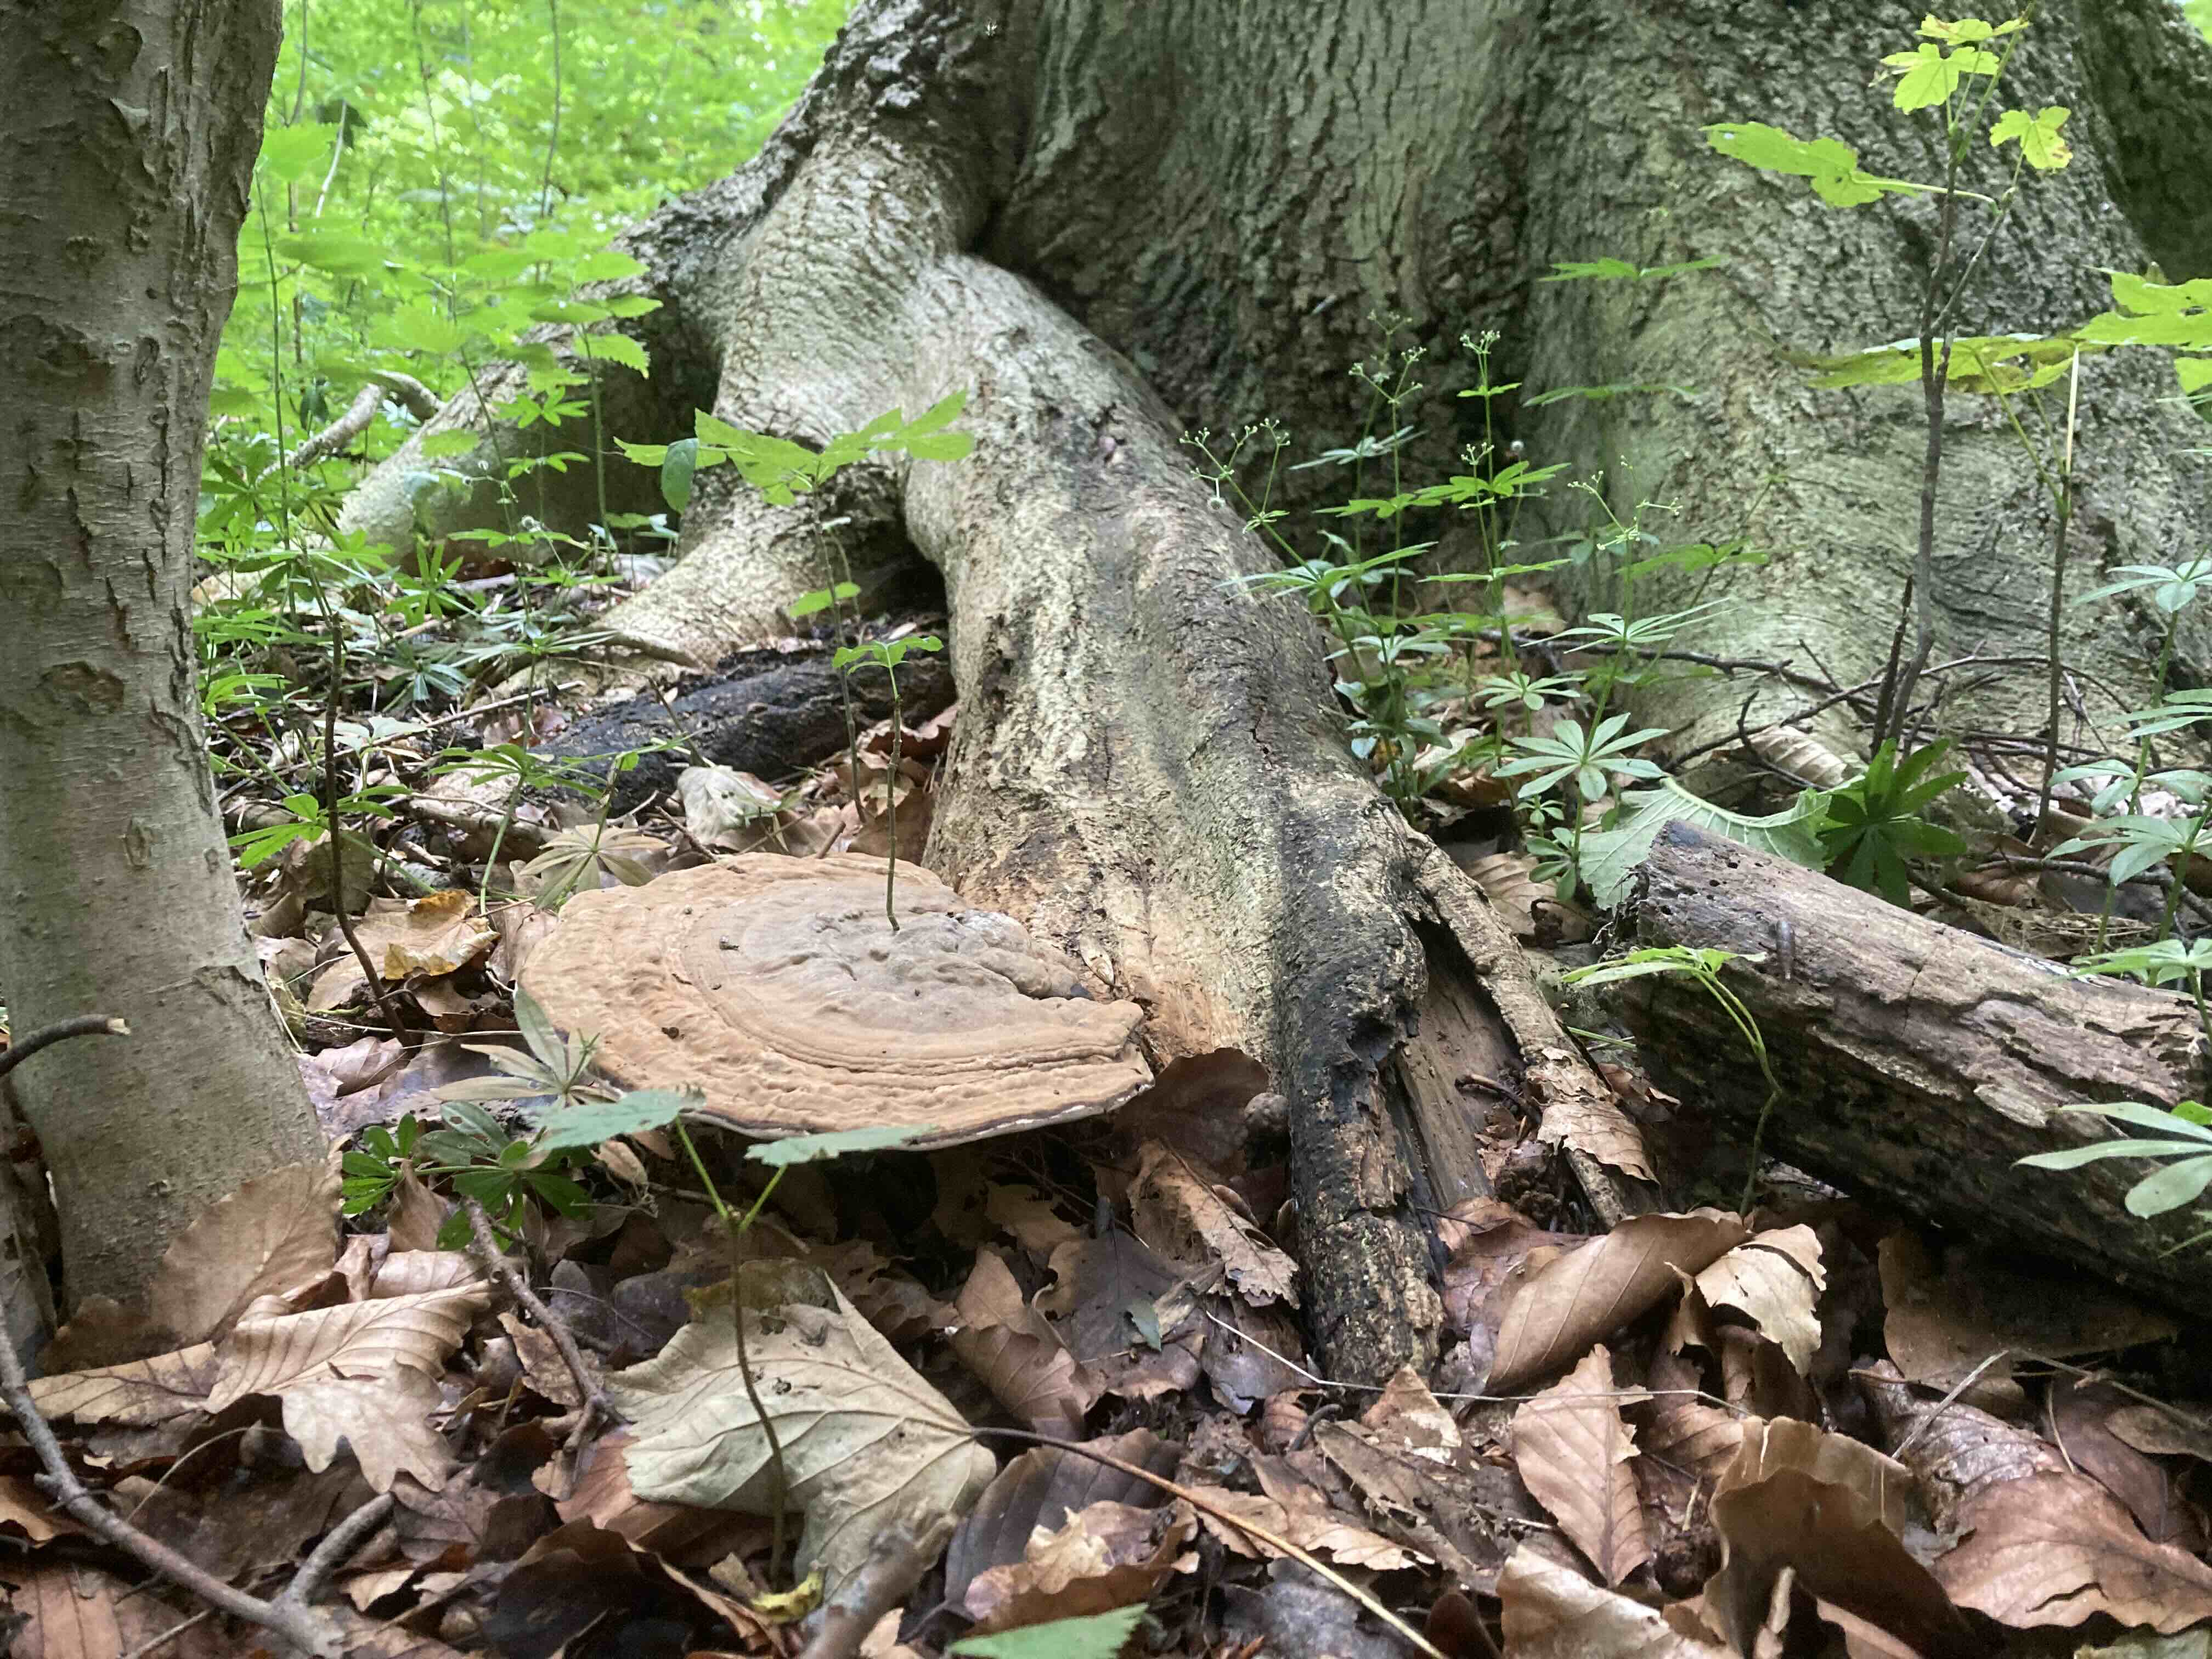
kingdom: Fungi
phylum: Basidiomycota
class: Agaricomycetes
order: Polyporales
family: Polyporaceae
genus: Ganoderma
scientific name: Ganoderma applanatum
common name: flad lakporesvamp
